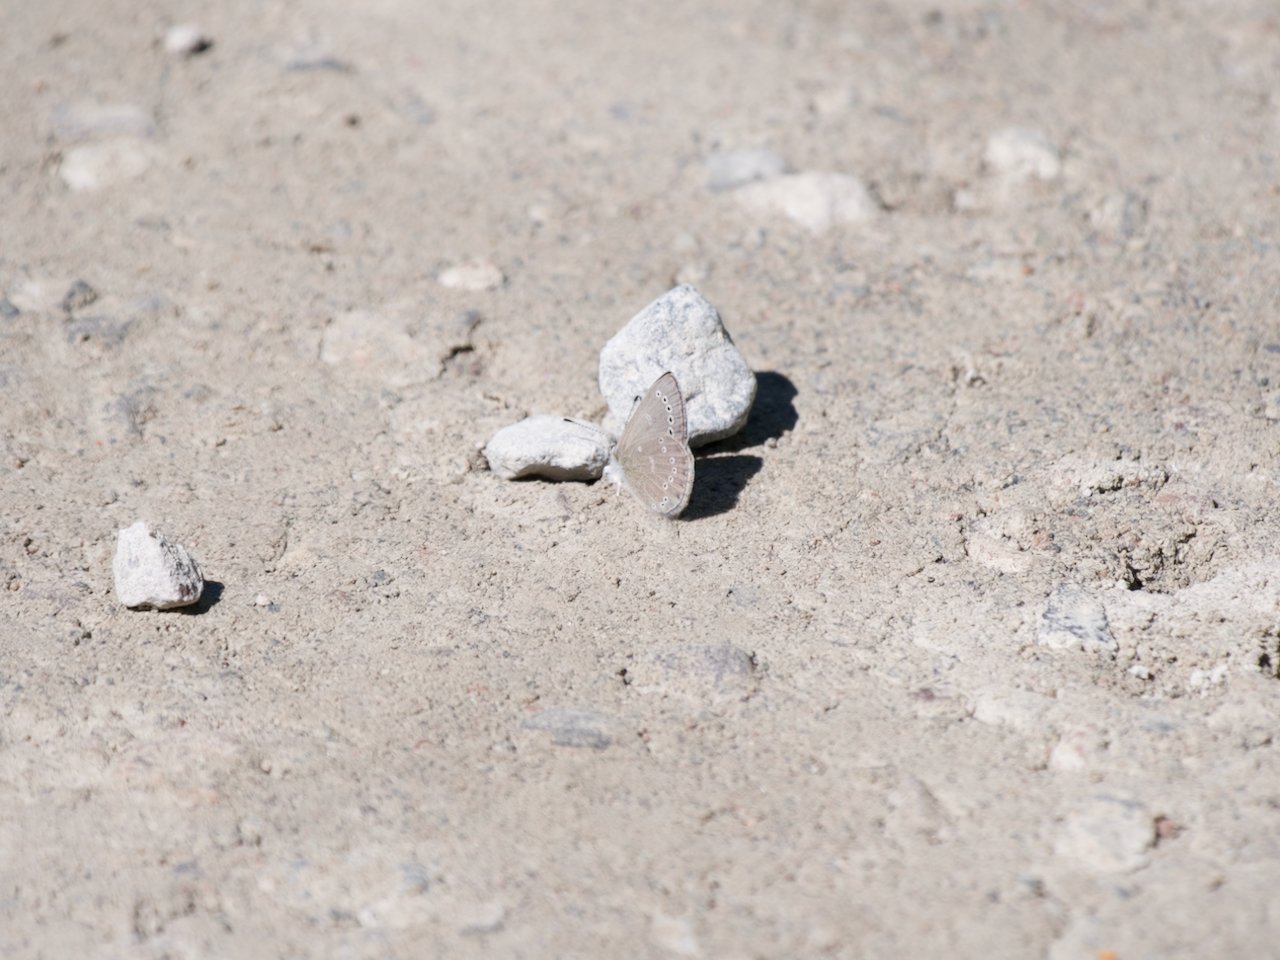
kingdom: Animalia
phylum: Arthropoda
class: Insecta
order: Lepidoptera
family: Lycaenidae
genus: Glaucopsyche
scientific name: Glaucopsyche lygdamus
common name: Silvery Blue
